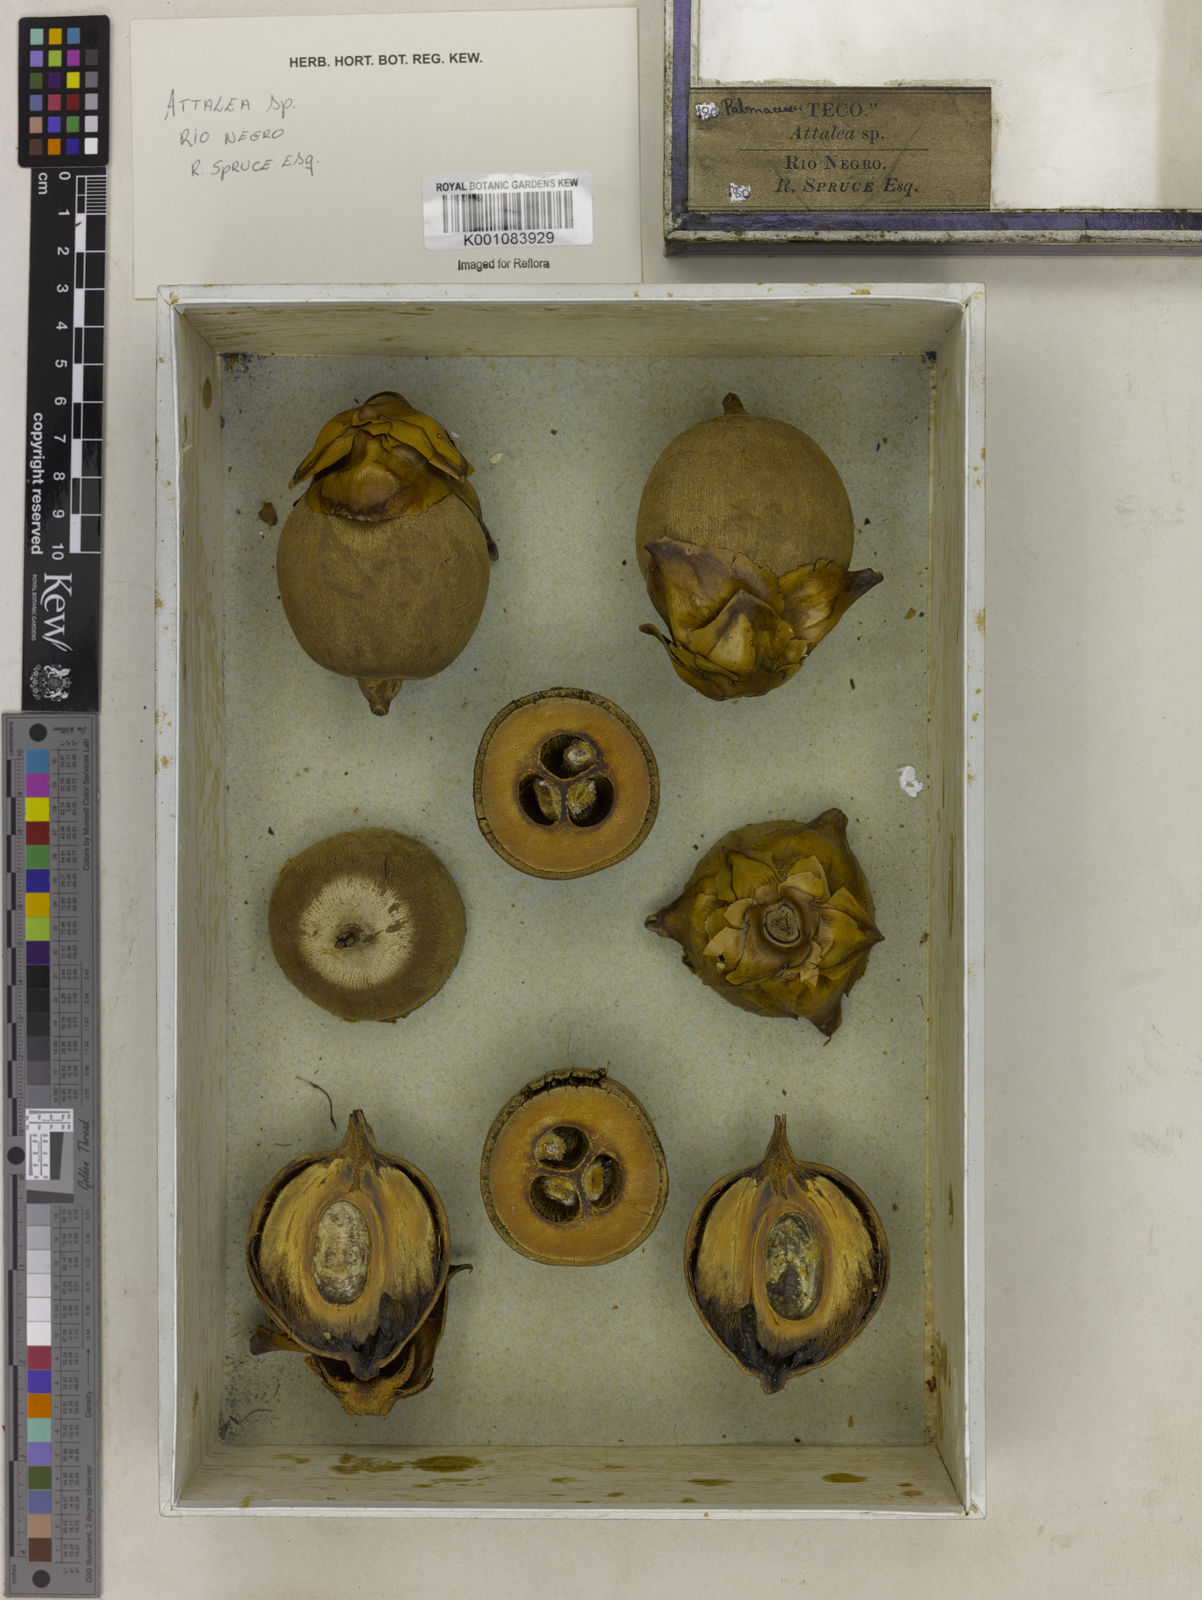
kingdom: Plantae
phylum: Tracheophyta
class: Liliopsida
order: Arecales
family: Arecaceae
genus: Attalea
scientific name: Attalea
